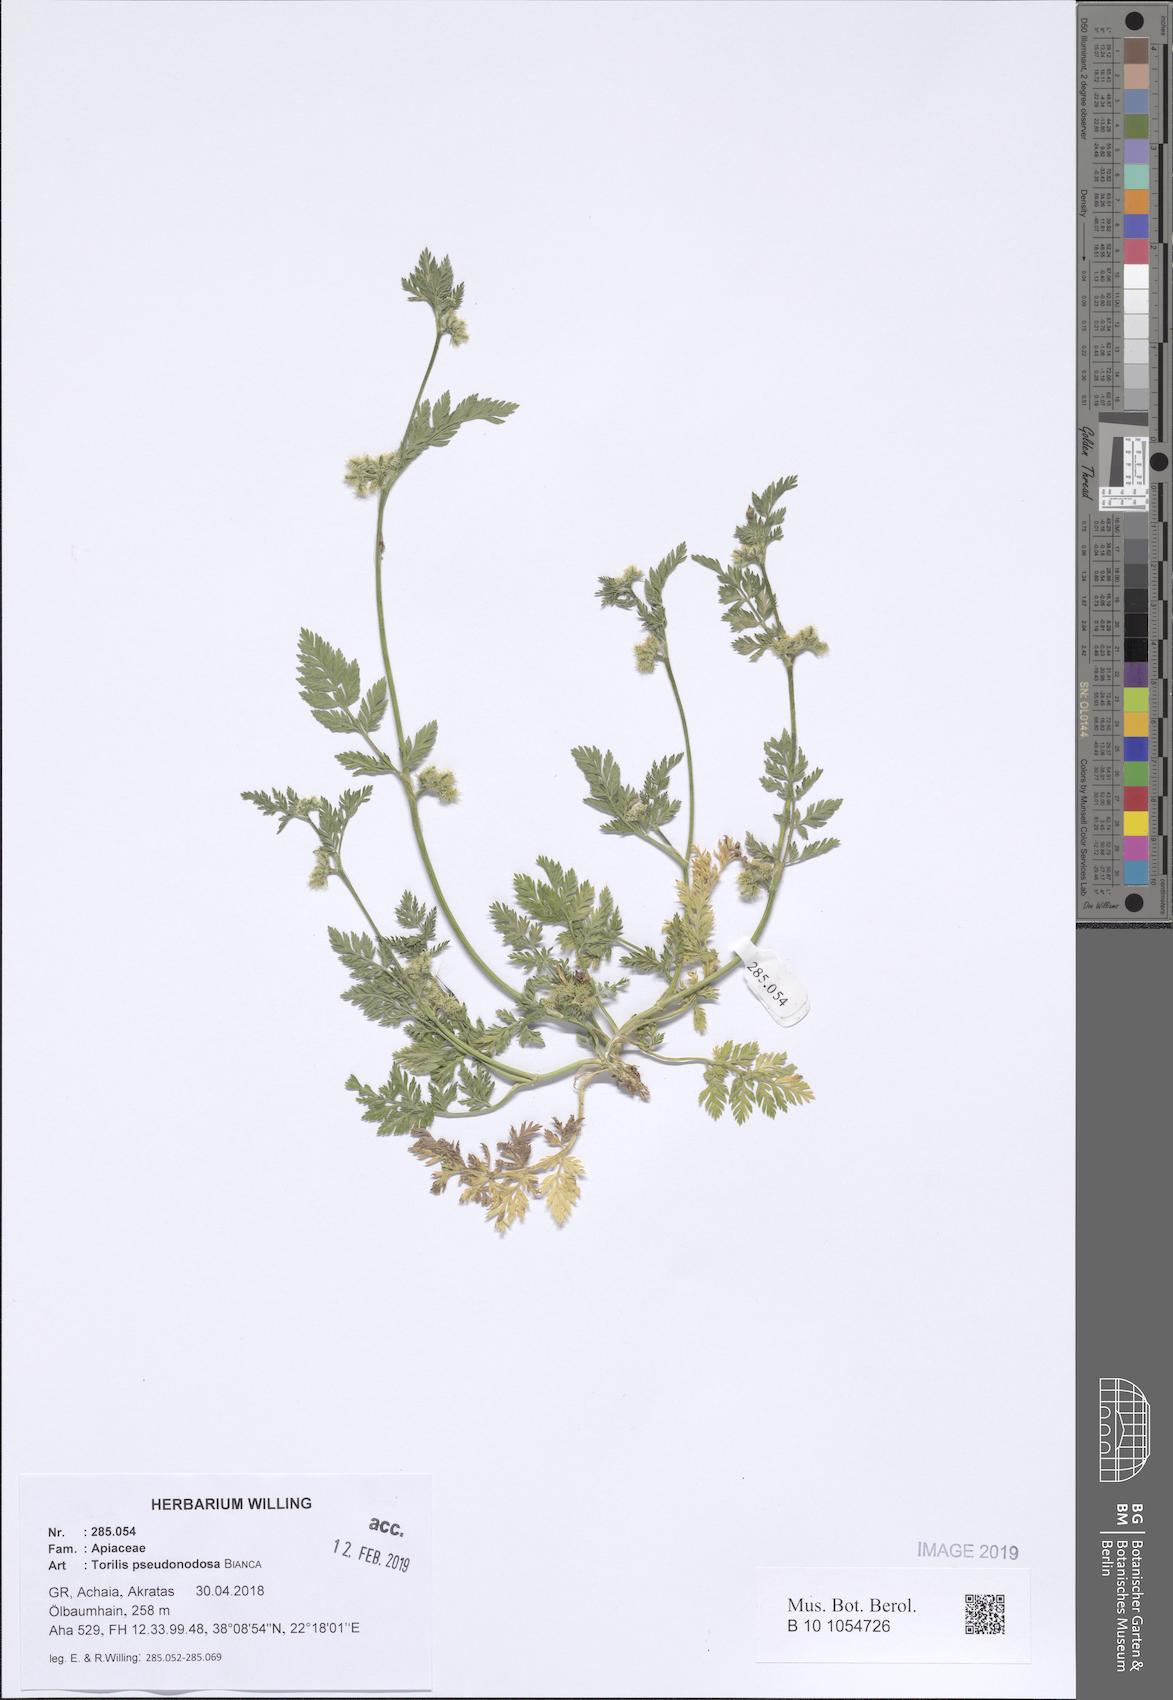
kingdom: Plantae
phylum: Tracheophyta
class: Magnoliopsida
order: Apiales
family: Apiaceae
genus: Torilis
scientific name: Torilis pseudonodosa
